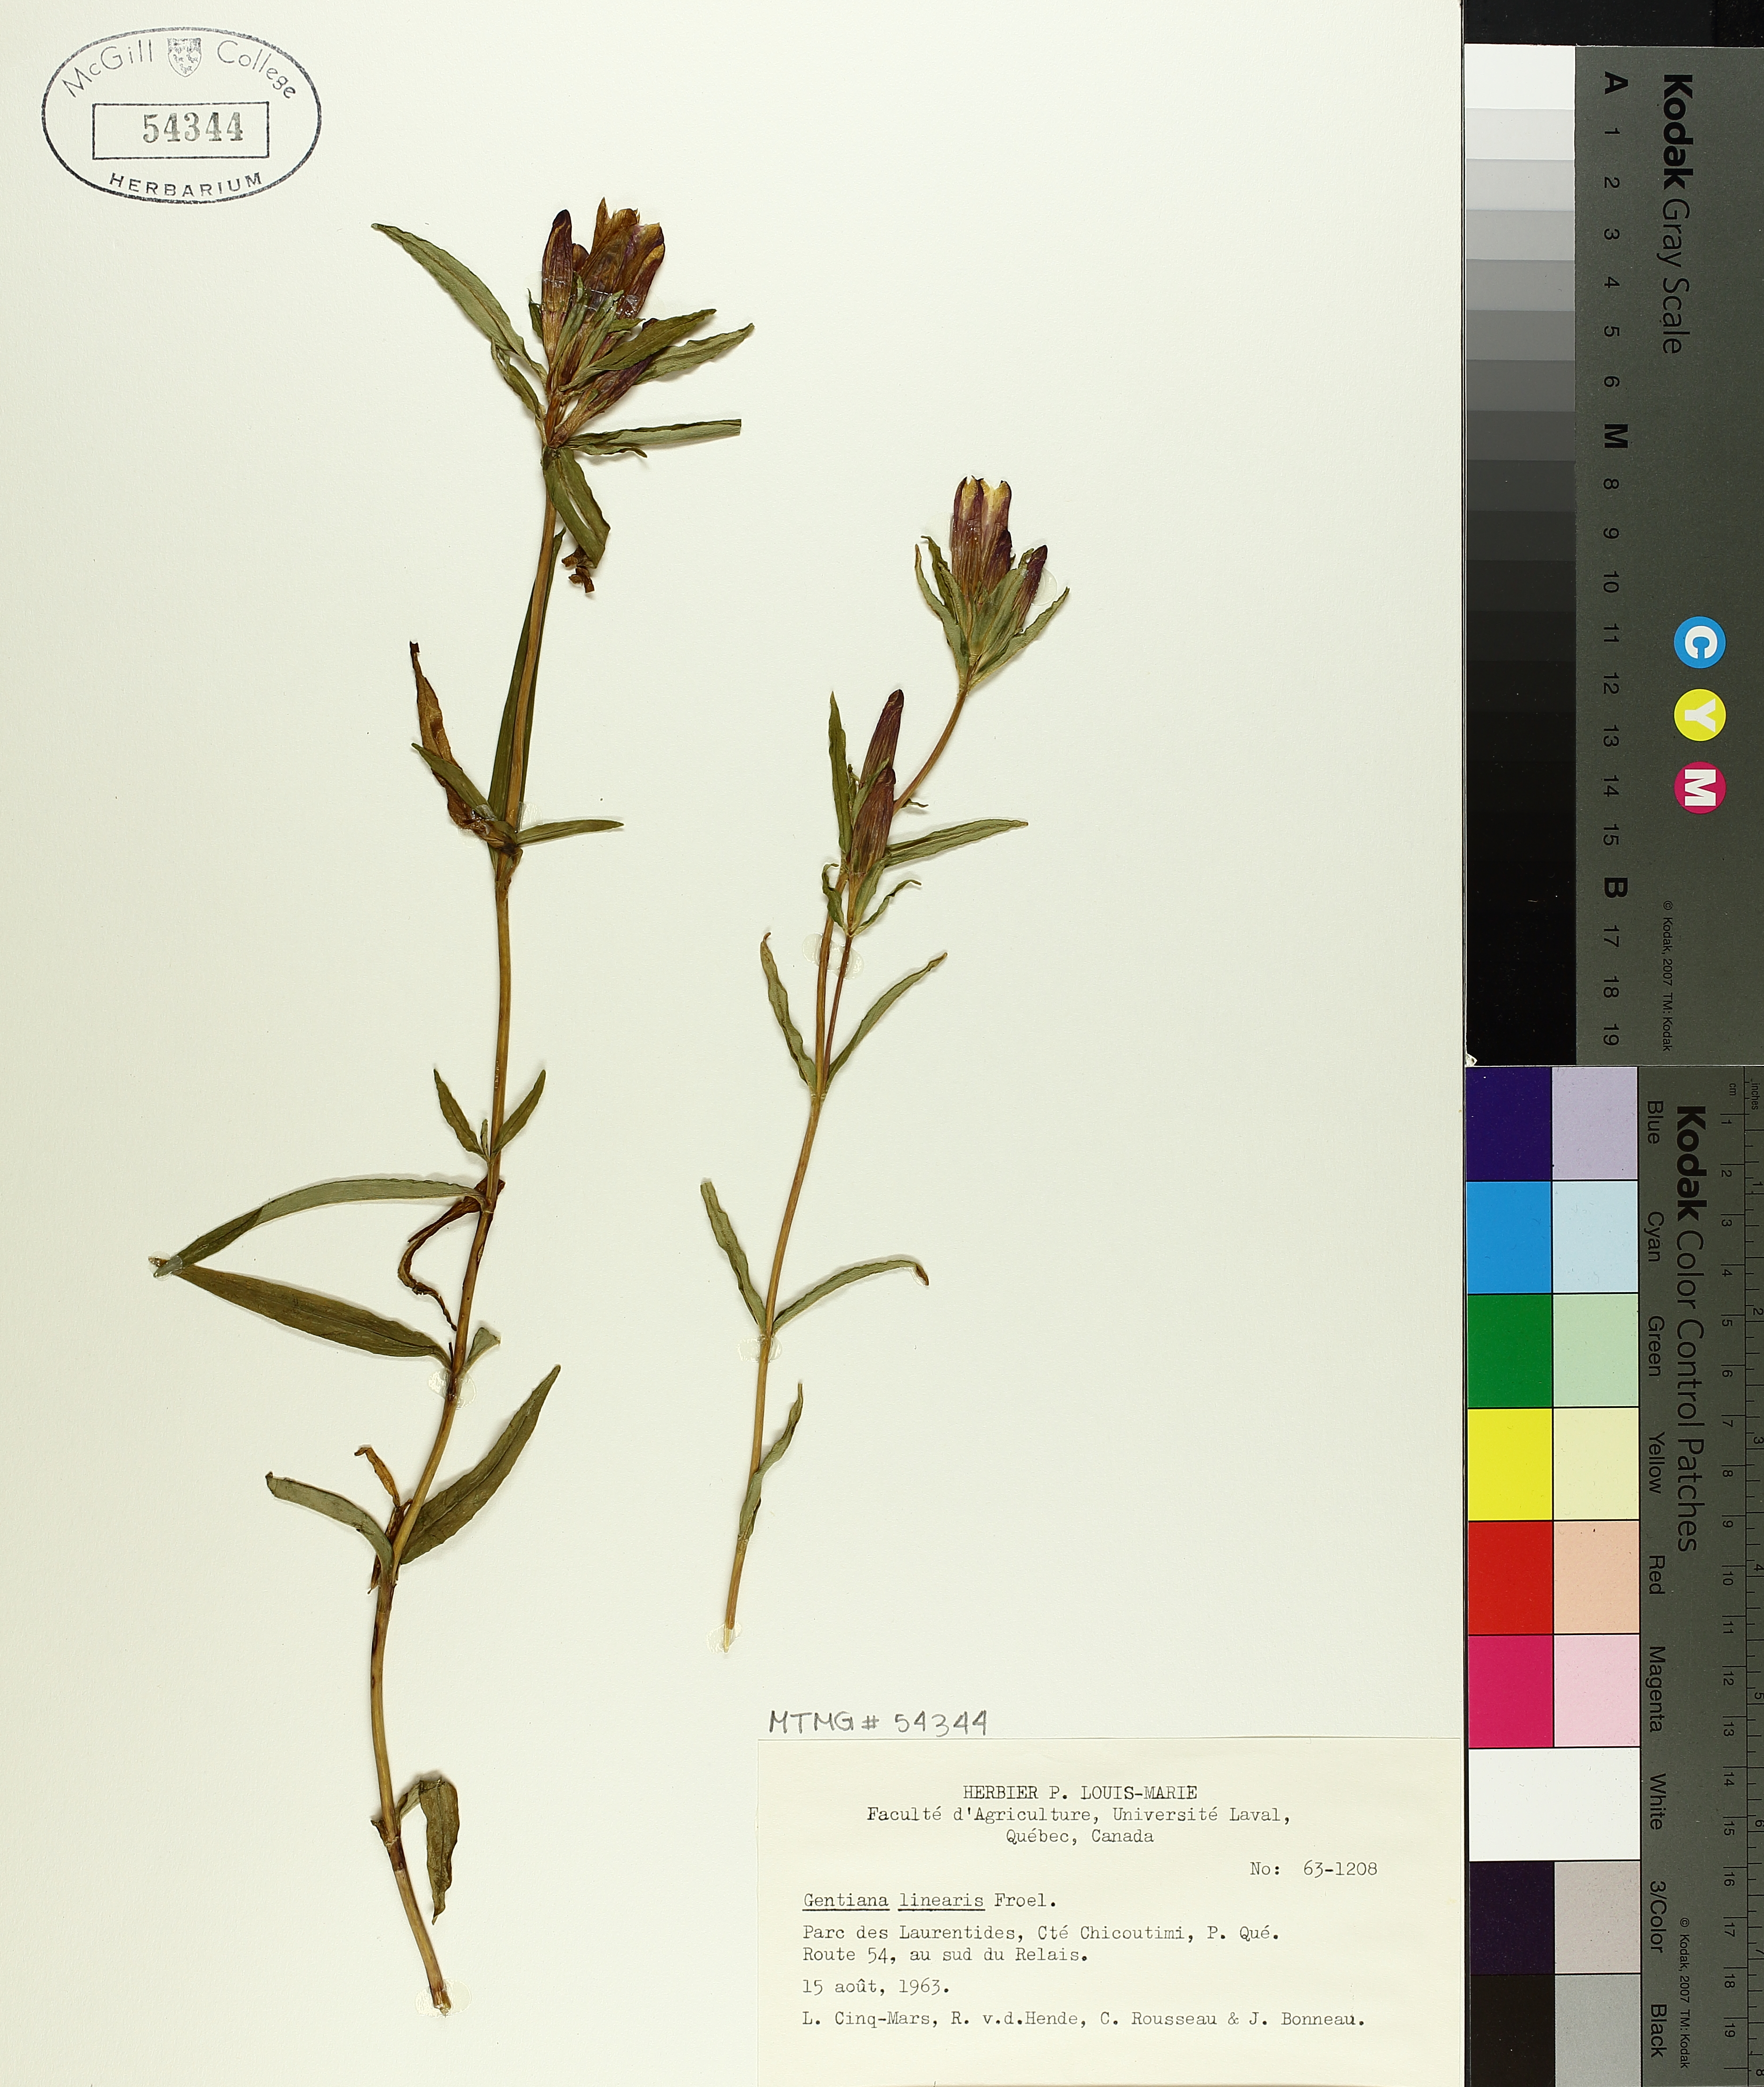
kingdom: Plantae
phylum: Tracheophyta
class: Magnoliopsida
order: Gentianales
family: Gentianaceae
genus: Gentiana
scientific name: Gentiana linearis
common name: Bastard gentian
